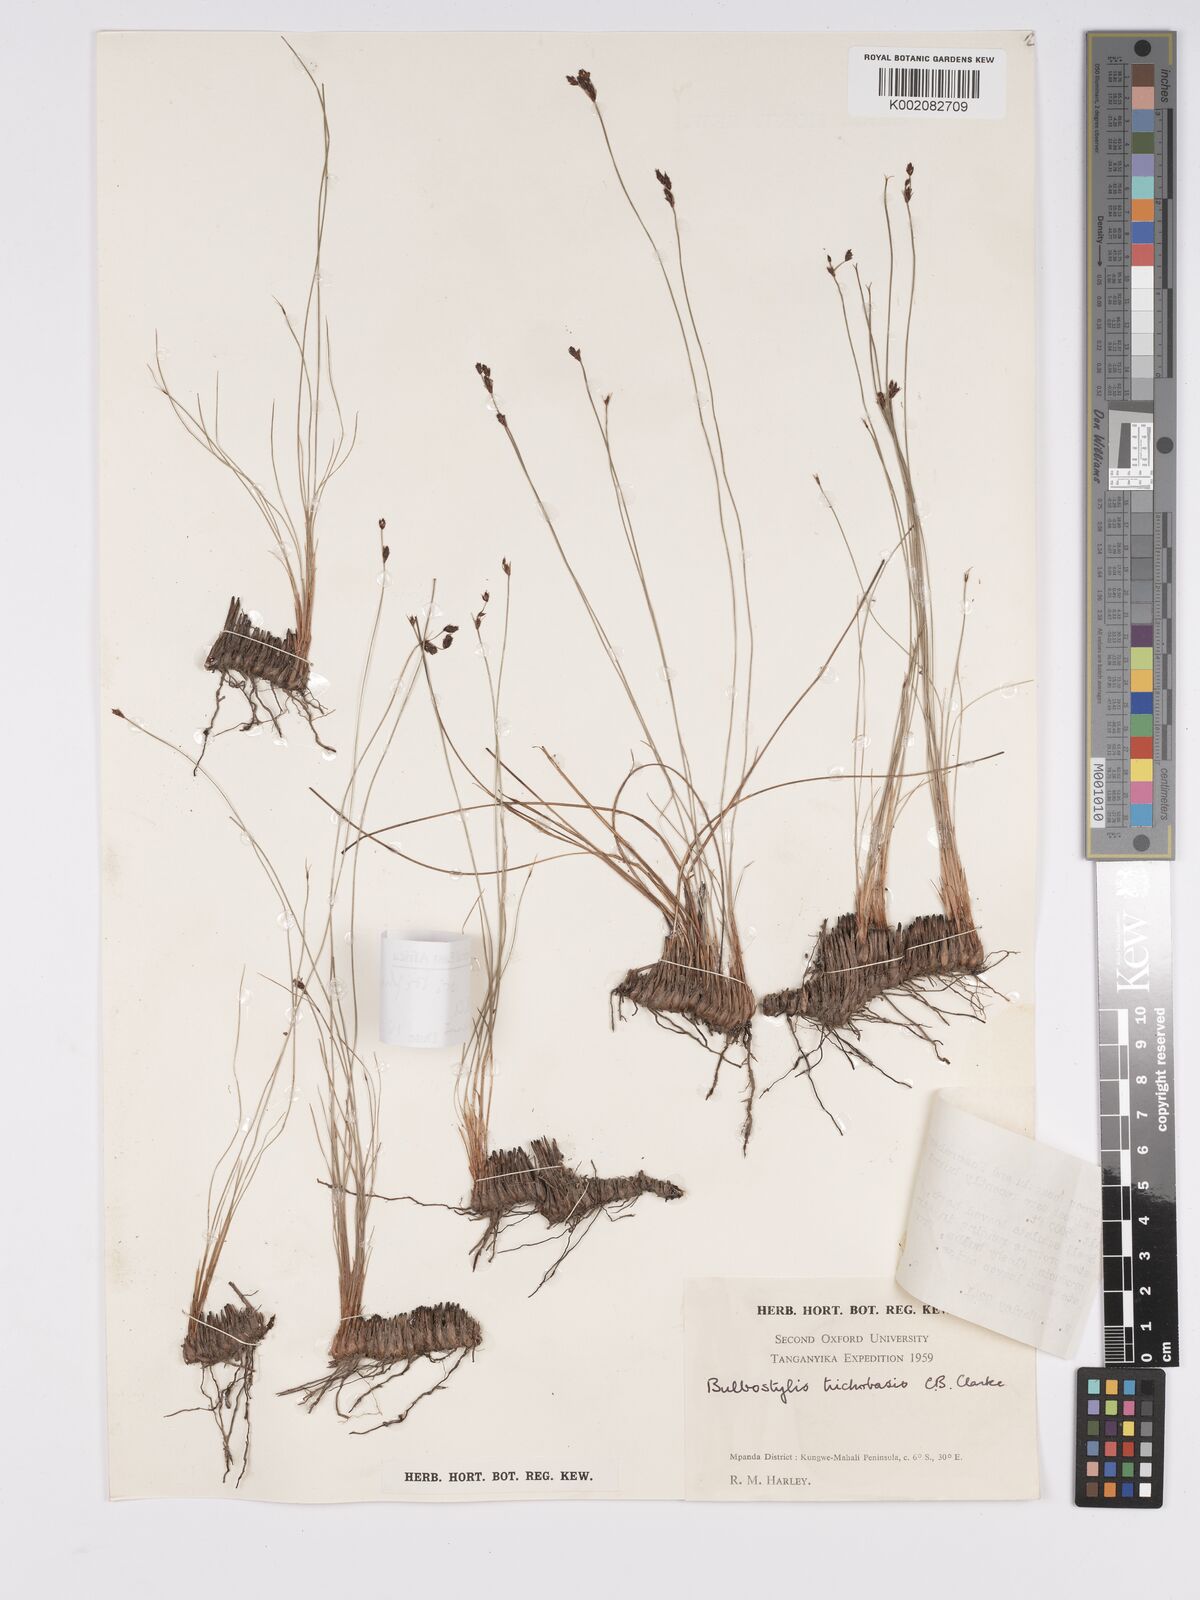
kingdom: Plantae
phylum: Tracheophyta
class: Liliopsida
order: Poales
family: Cyperaceae
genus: Bulbostylis
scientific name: Bulbostylis oritrephes
